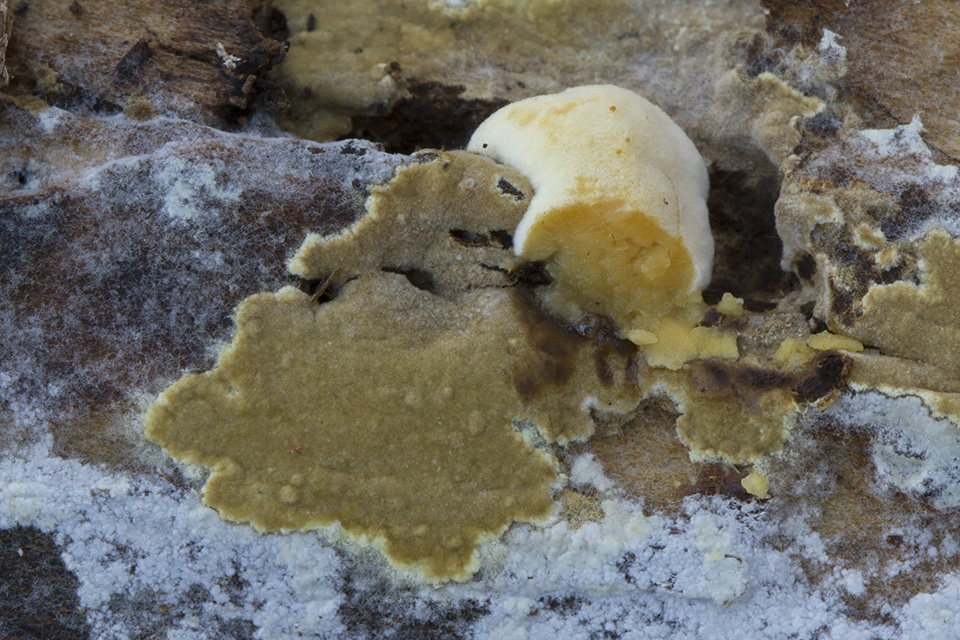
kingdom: Fungi
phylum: Ascomycota
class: Sordariomycetes
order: Xylariales
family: Hypoxylaceae
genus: Nodulisporium
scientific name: Nodulisporium cecidiogenes
